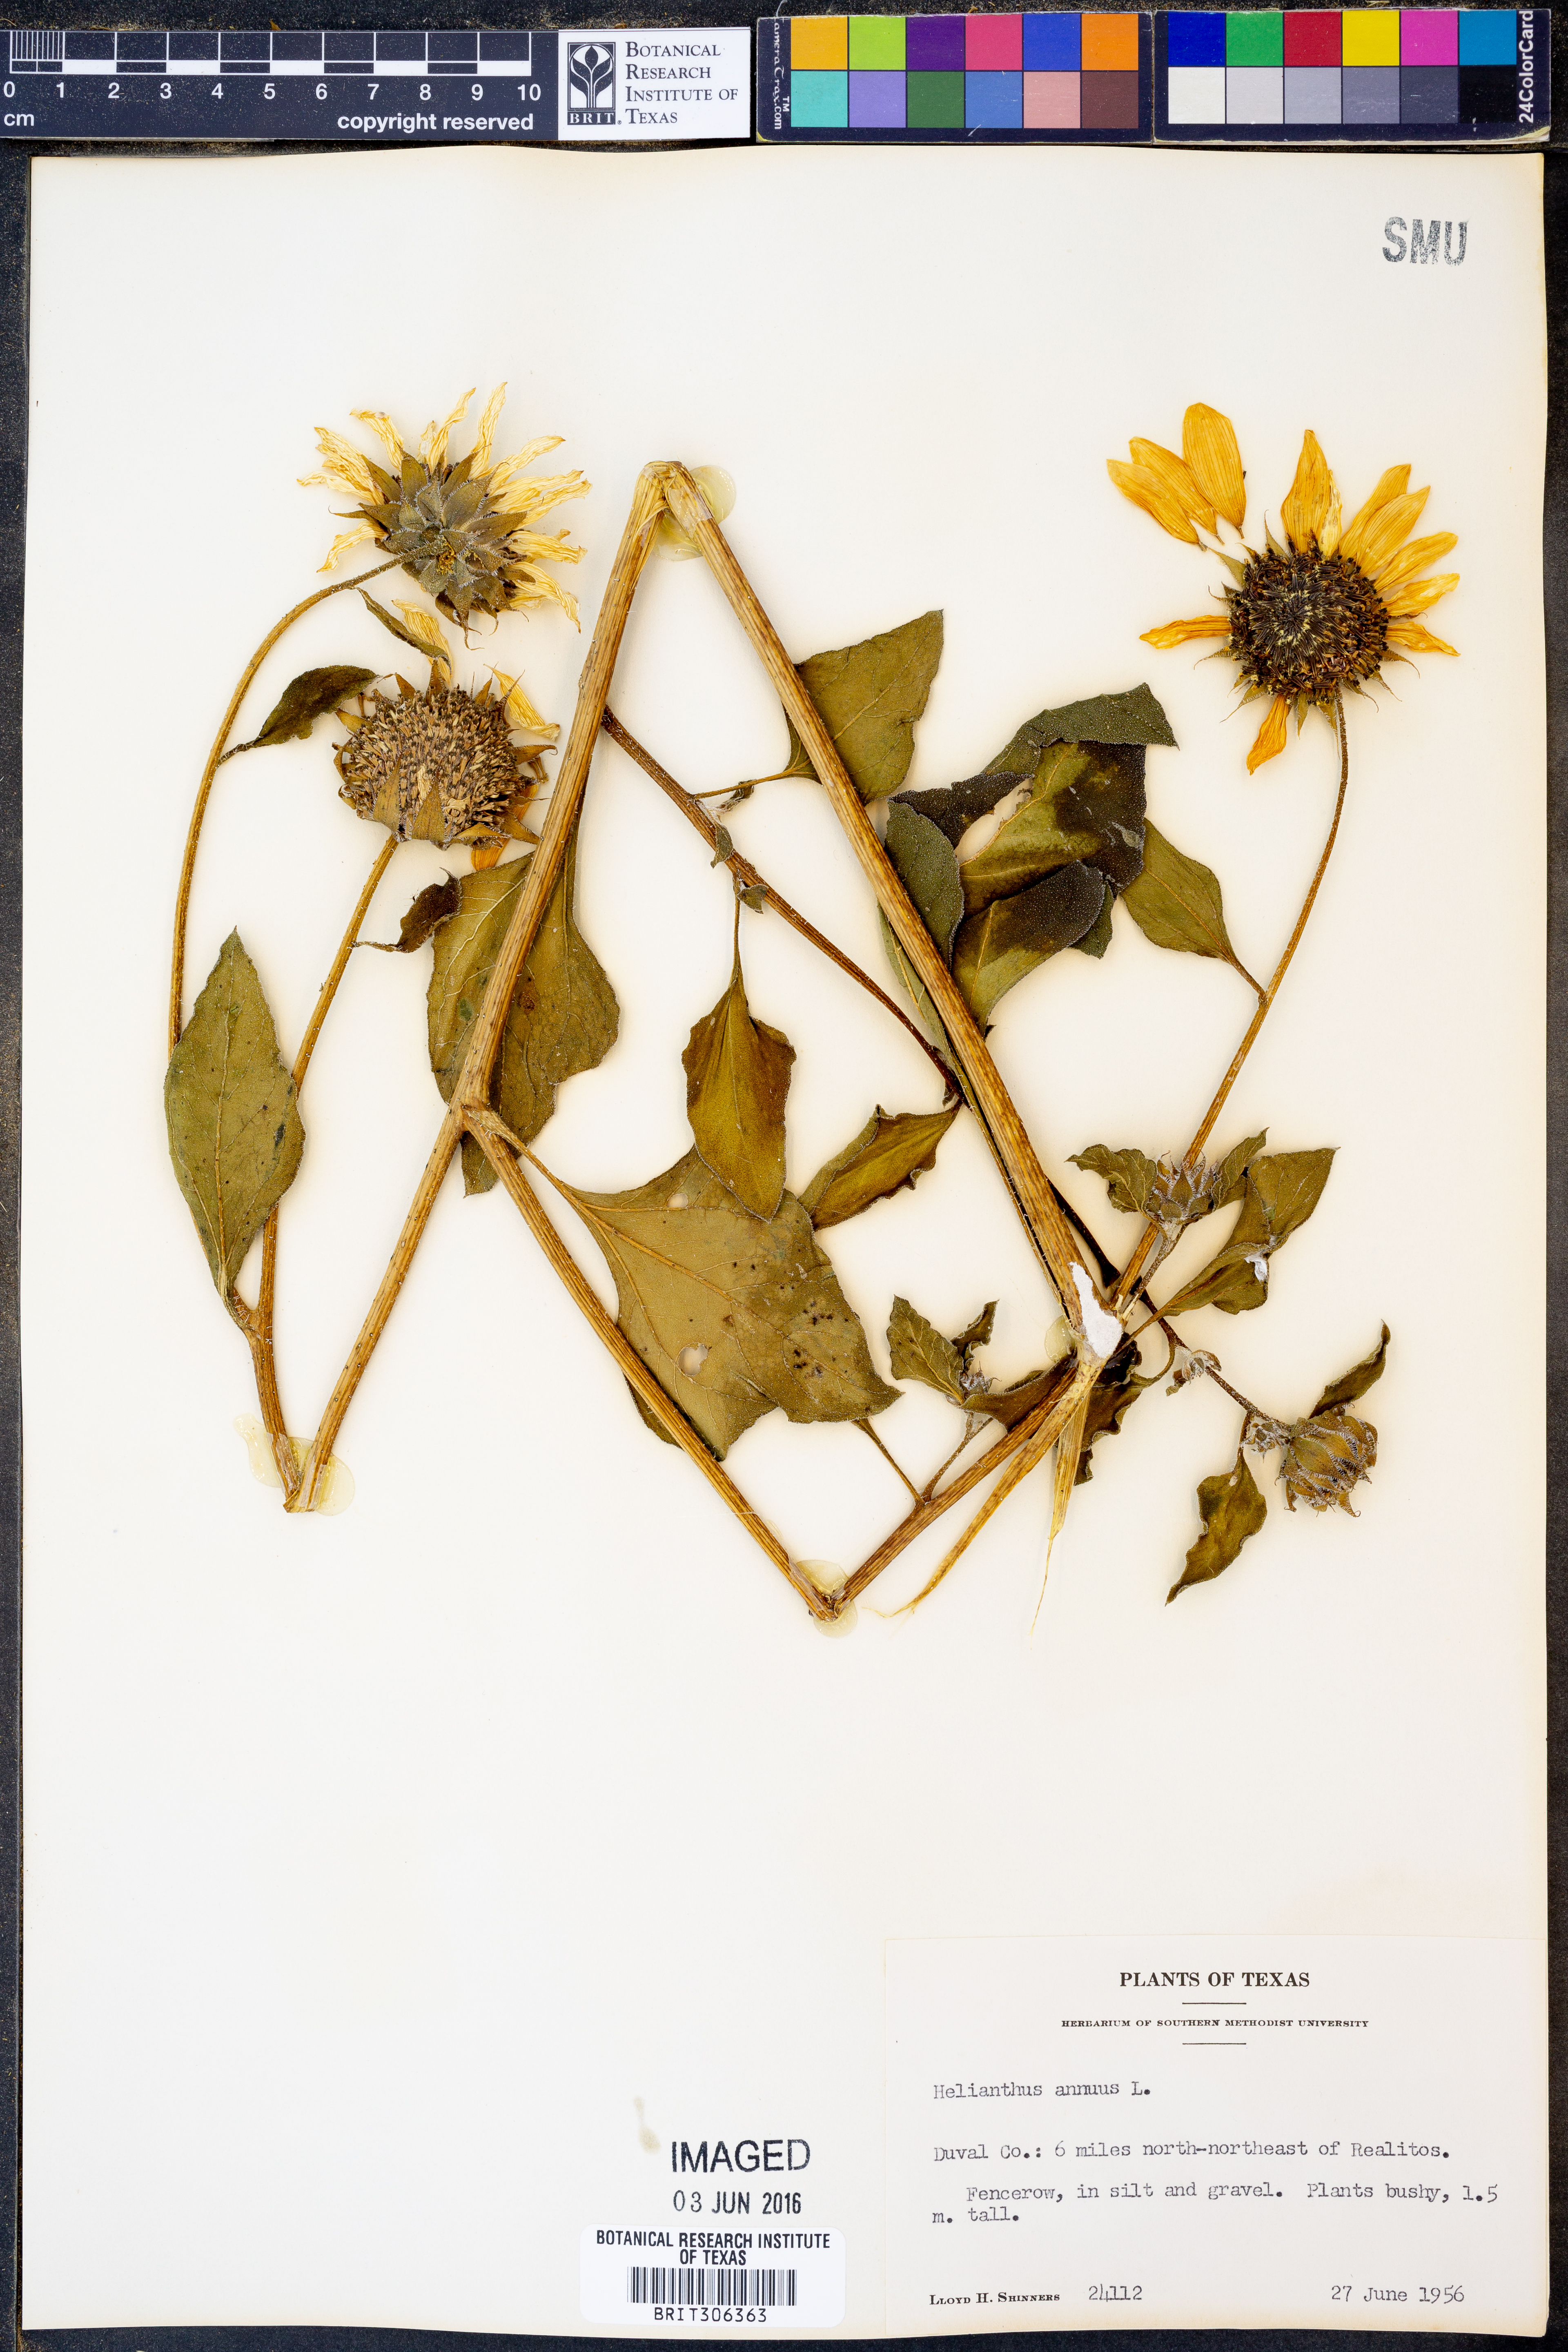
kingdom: Plantae
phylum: Tracheophyta
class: Magnoliopsida
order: Asterales
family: Asteraceae
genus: Helianthus
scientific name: Helianthus annuus
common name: Sunflower
